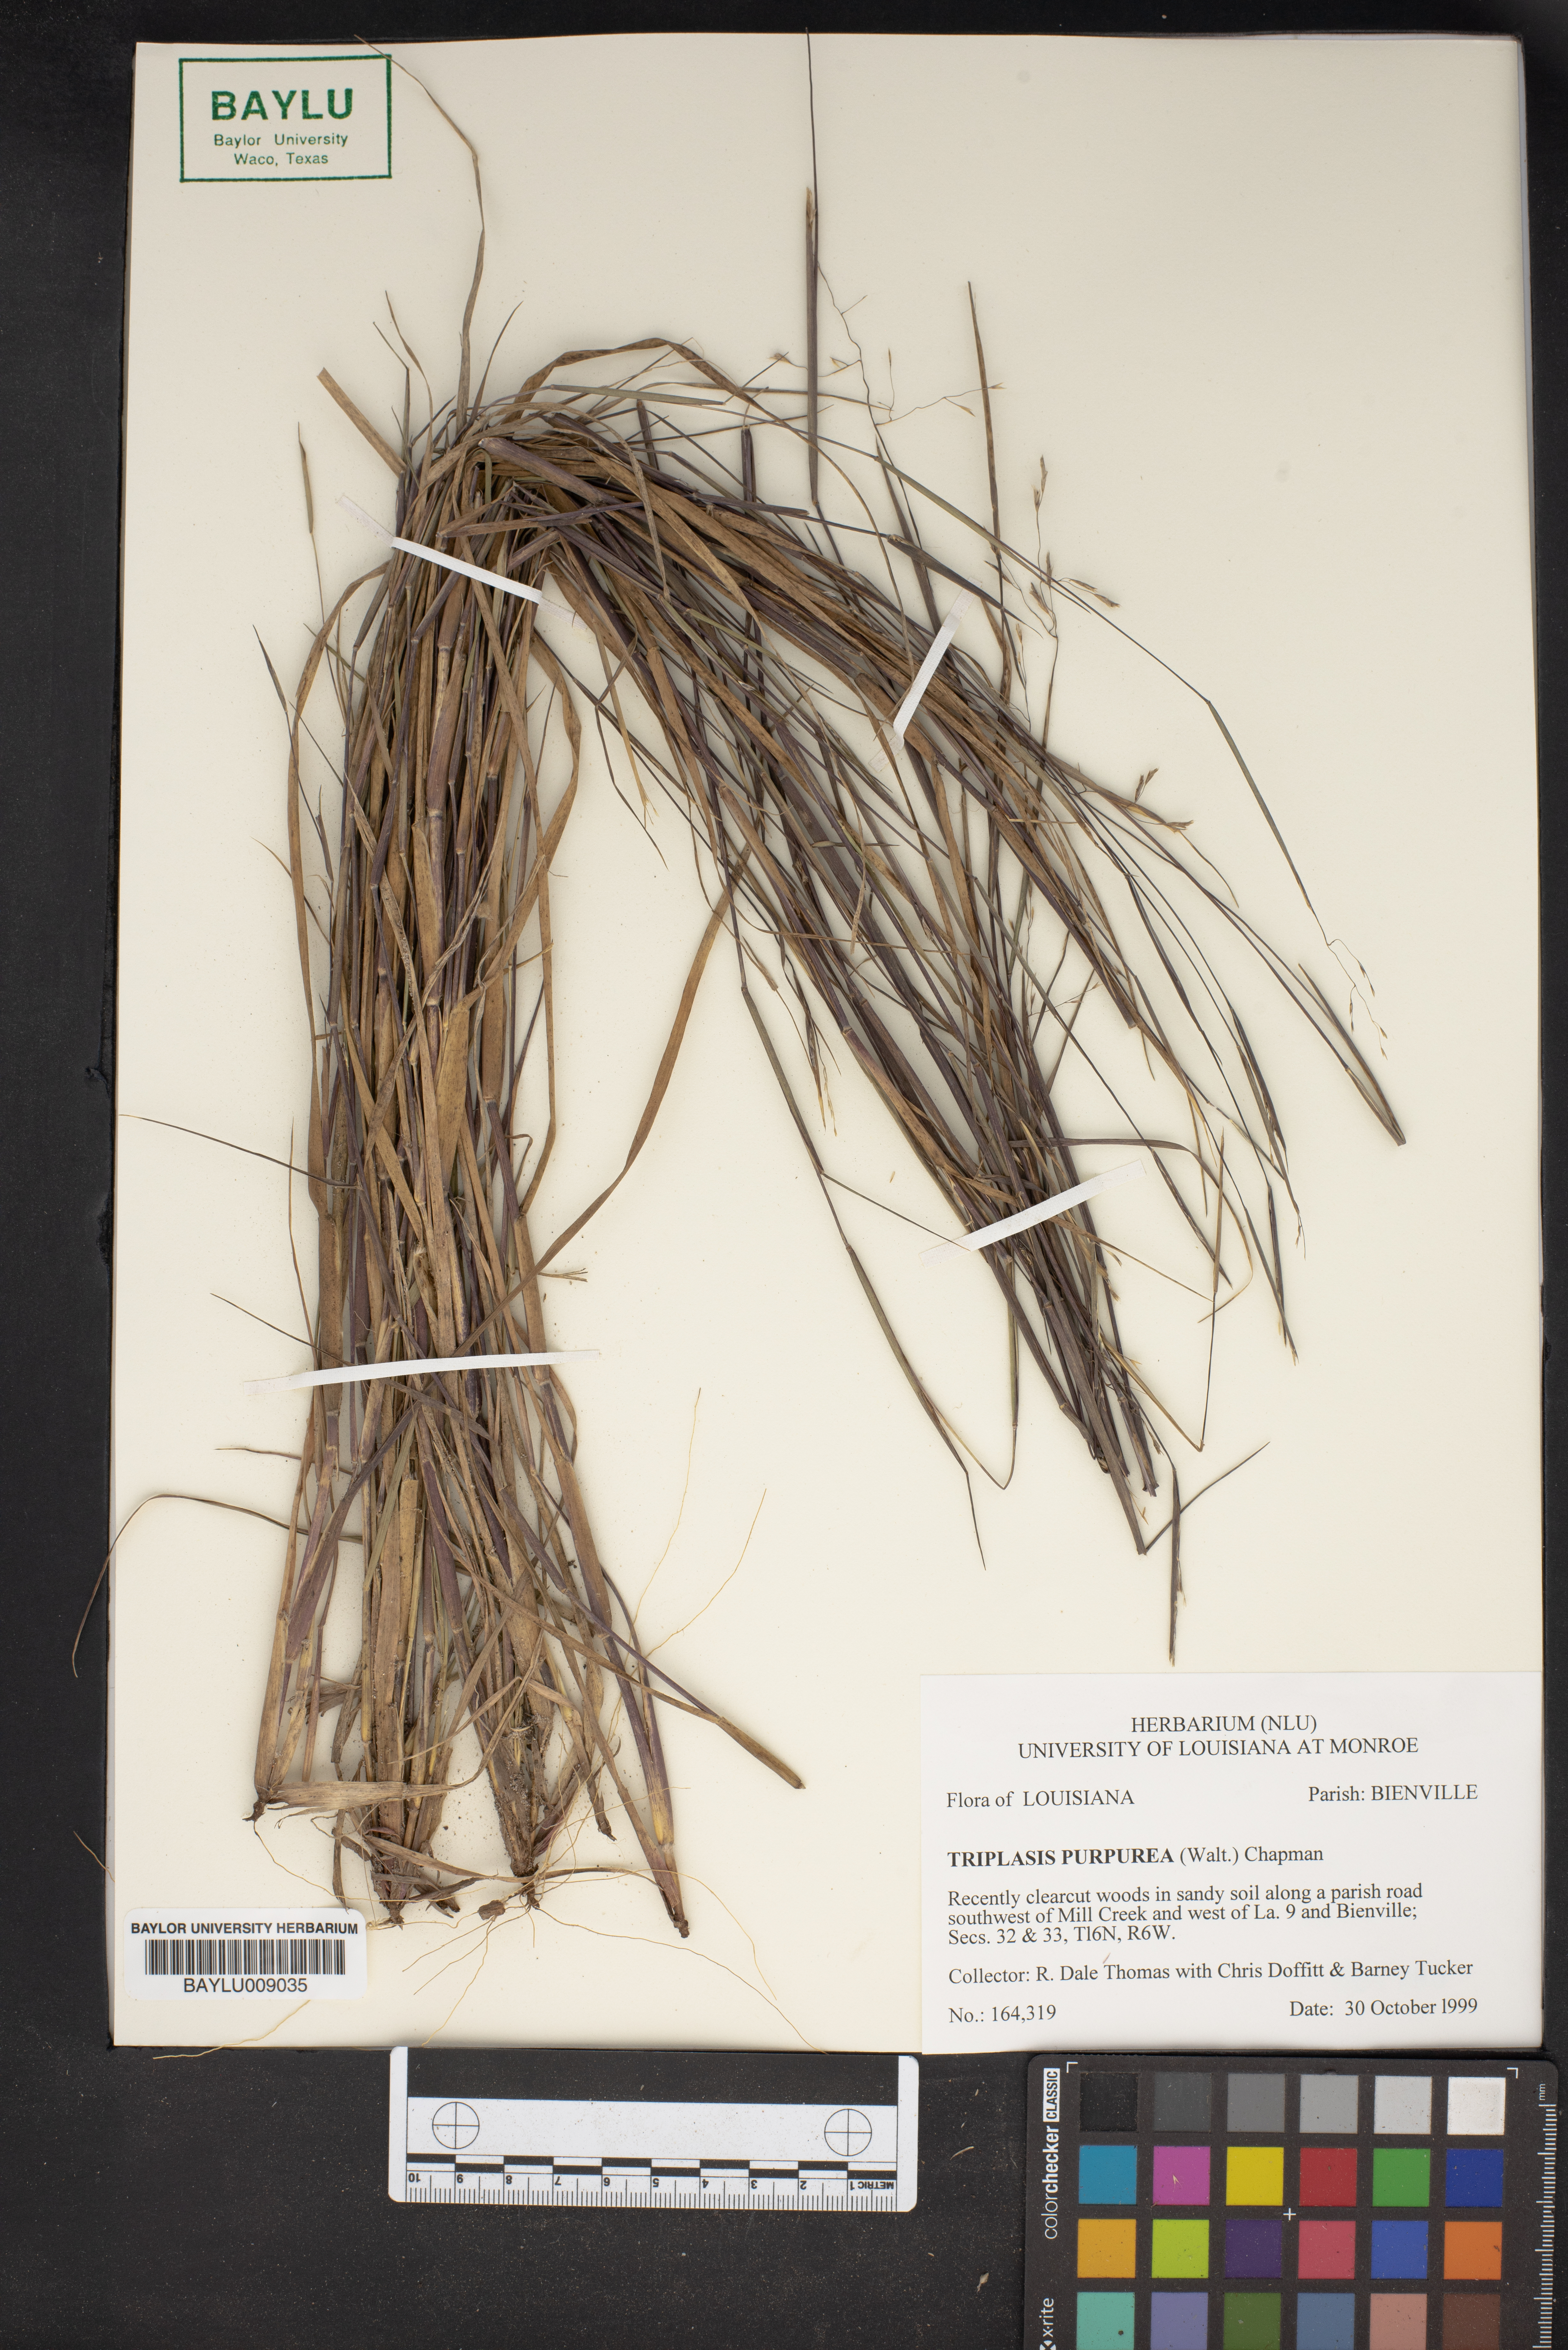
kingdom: Plantae
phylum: Tracheophyta
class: Liliopsida
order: Poales
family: Poaceae
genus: Triplasis
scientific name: Triplasis purpurea
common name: Purple sand grass
